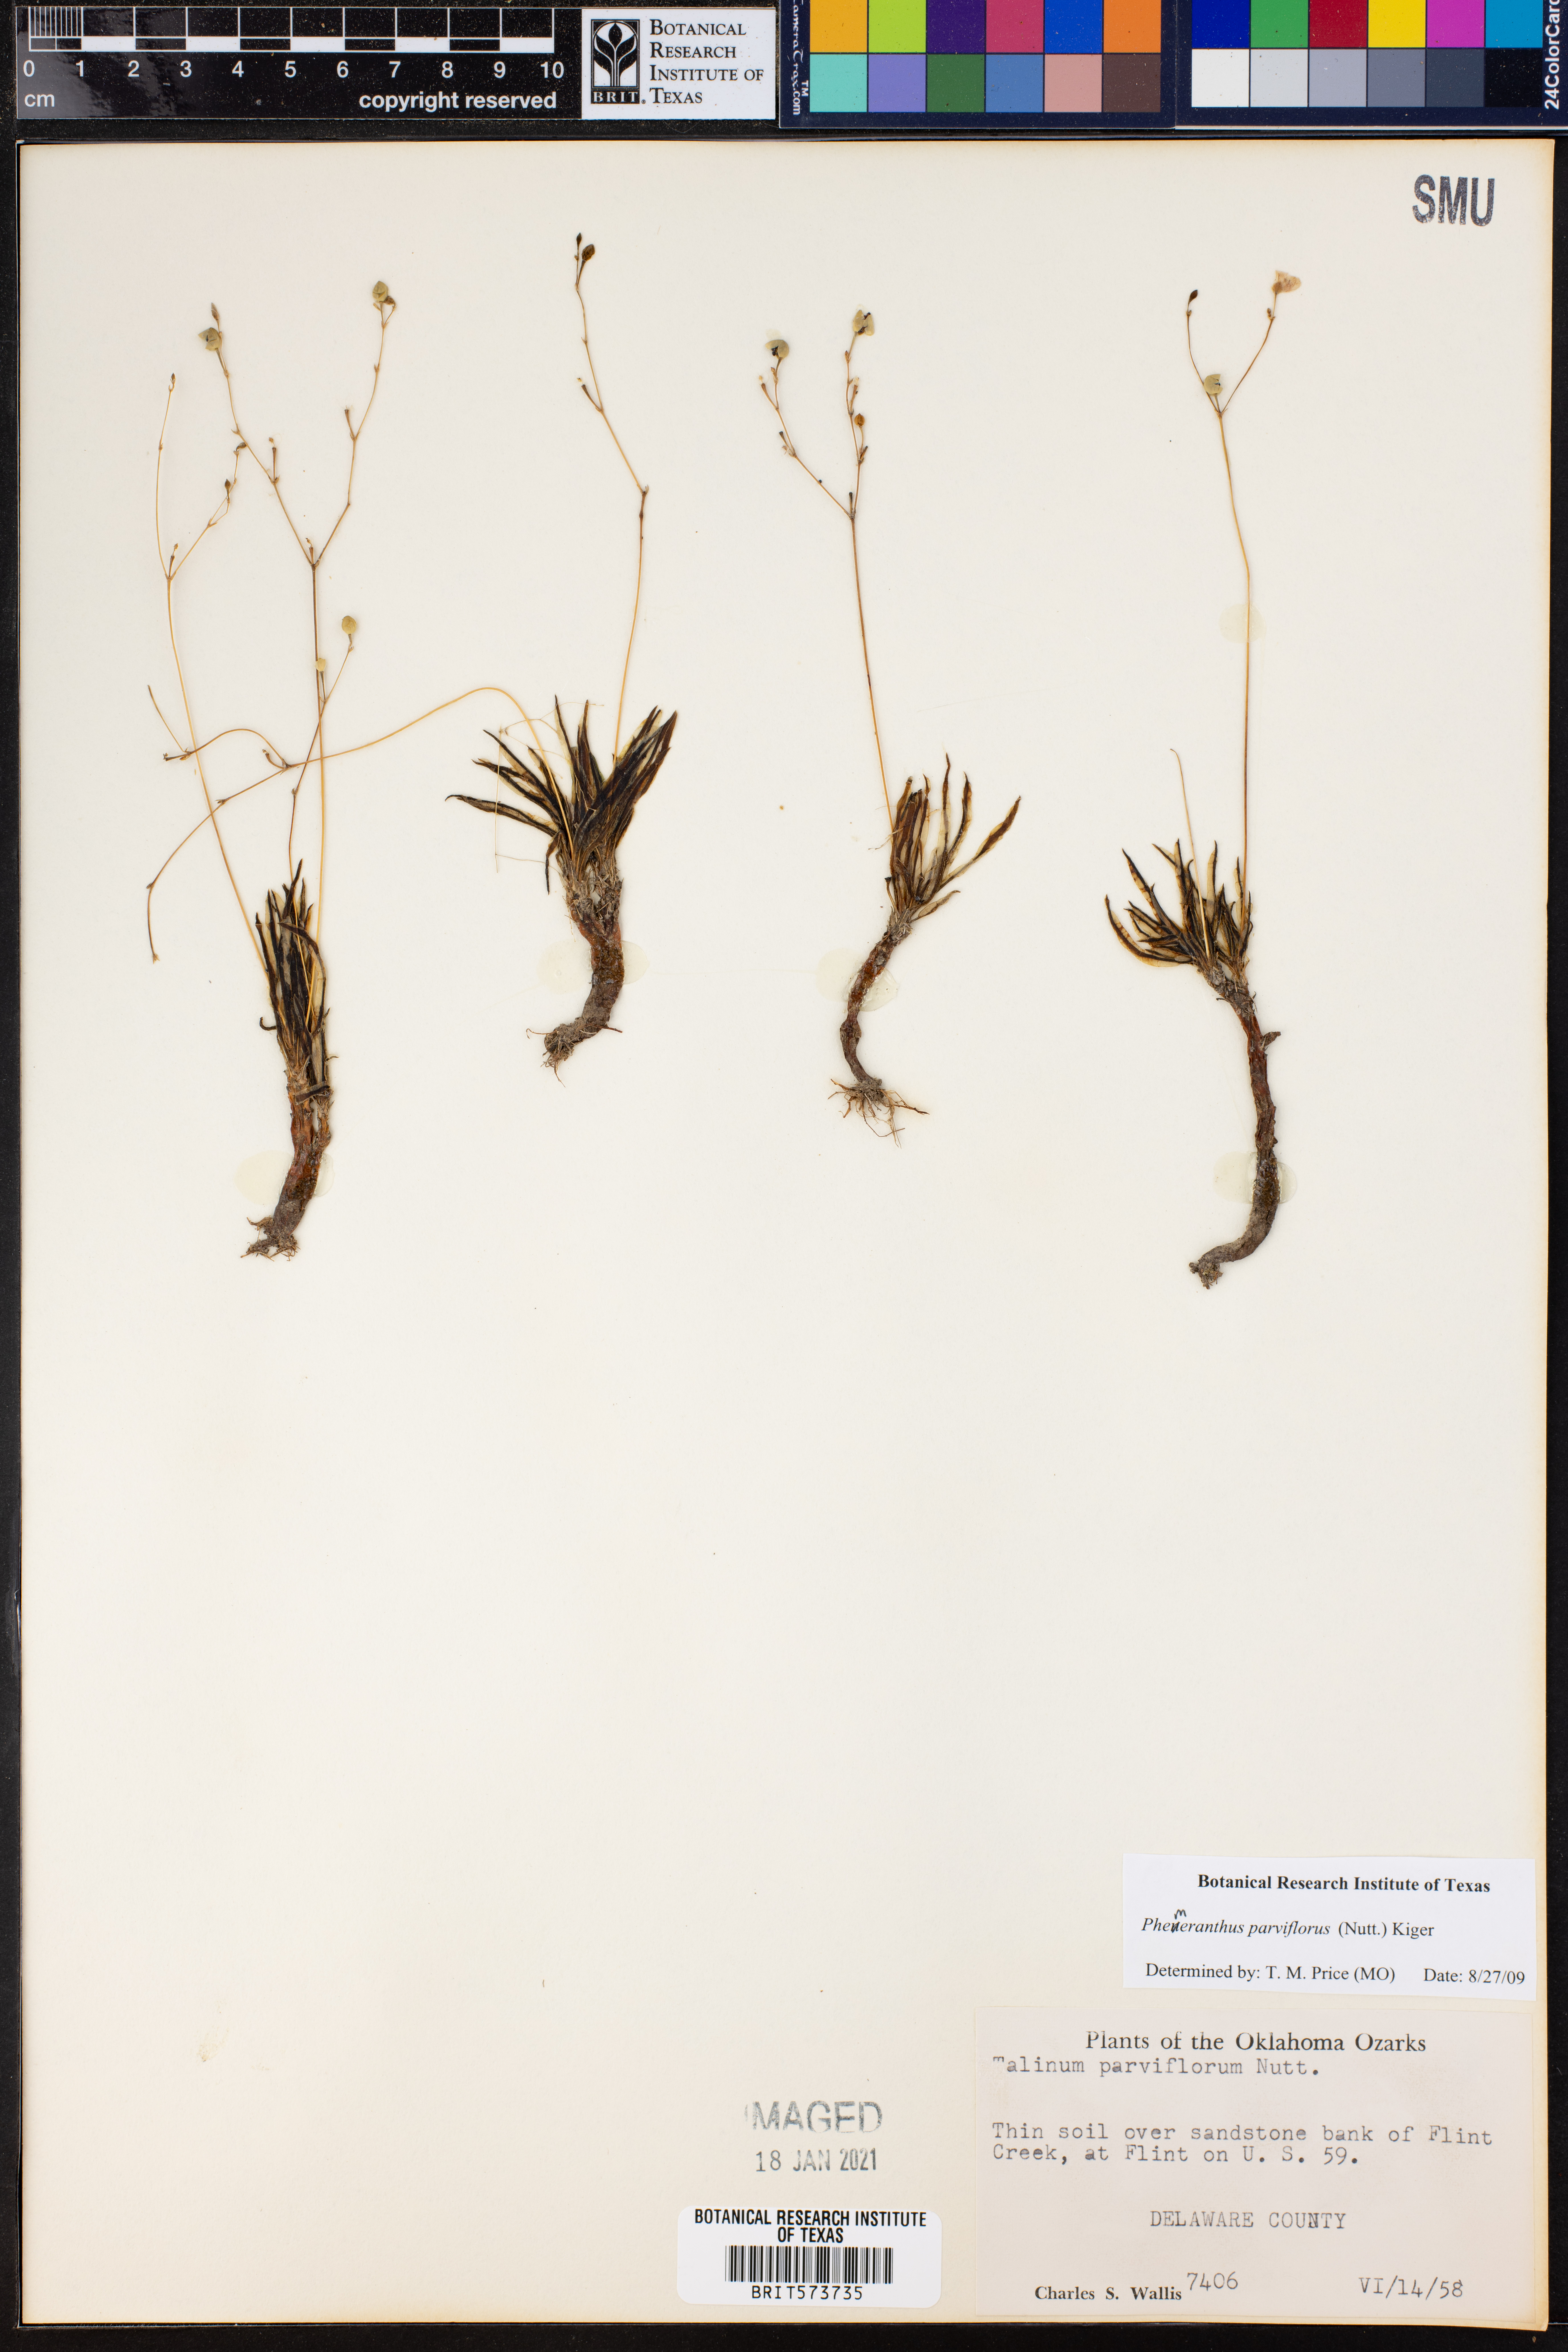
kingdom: Plantae
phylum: Tracheophyta
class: Magnoliopsida
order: Caryophyllales
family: Montiaceae
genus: Phemeranthus
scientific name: Phemeranthus parviflorus
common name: Sunbright
